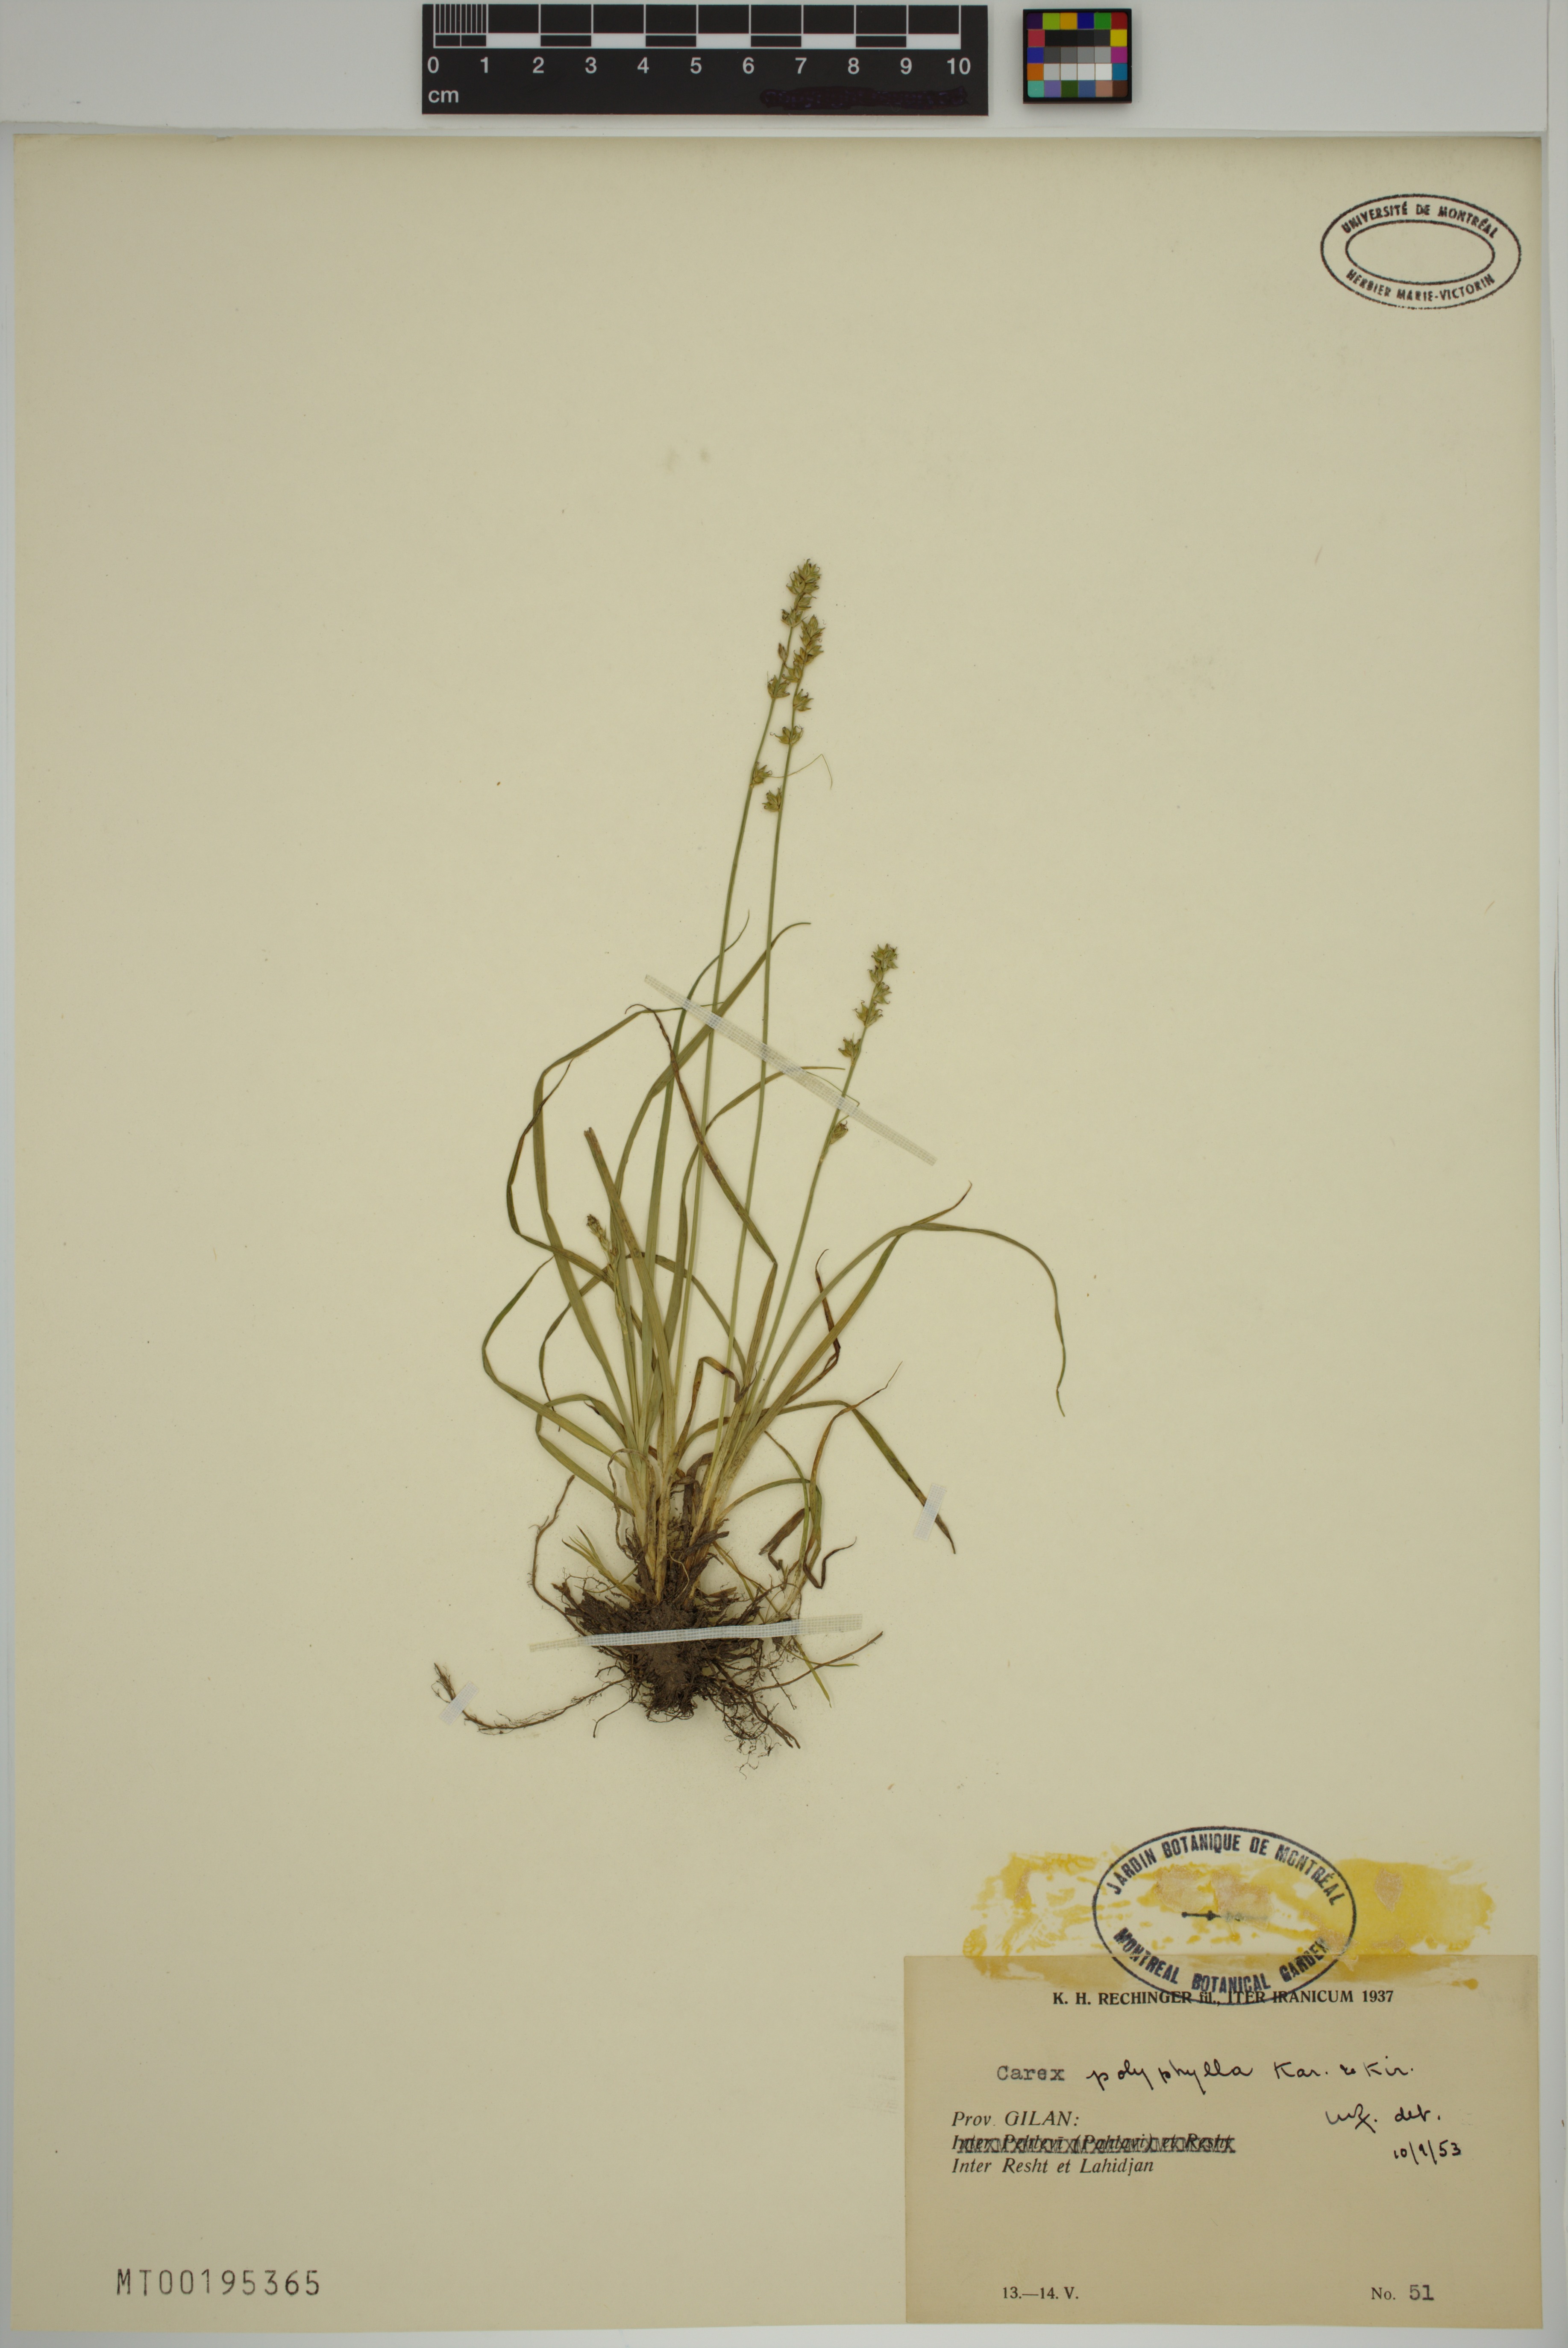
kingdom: Plantae
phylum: Tracheophyta
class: Liliopsida
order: Poales
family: Cyperaceae
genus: Carex
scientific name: Carex polyphylla
